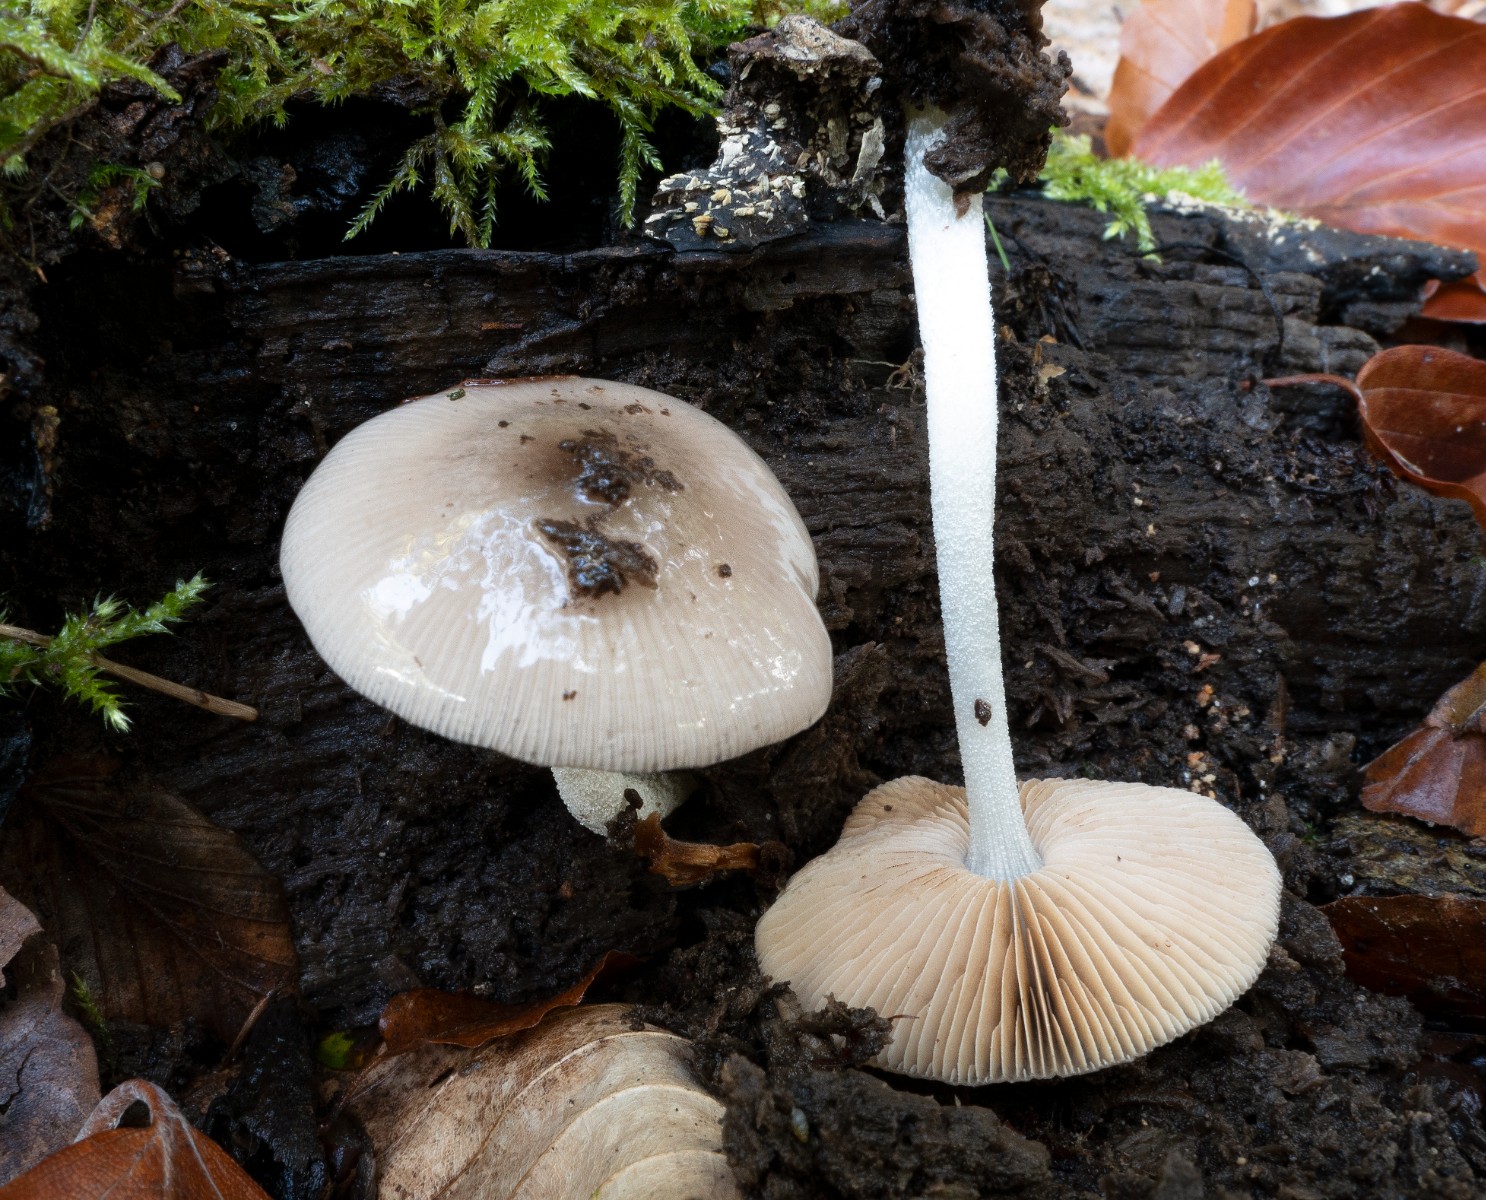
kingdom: Fungi
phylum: Basidiomycota
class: Agaricomycetes
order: Agaricales
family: Bolbitiaceae
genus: Bolbitius
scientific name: Bolbitius reticulatus
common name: netåret gulhat
